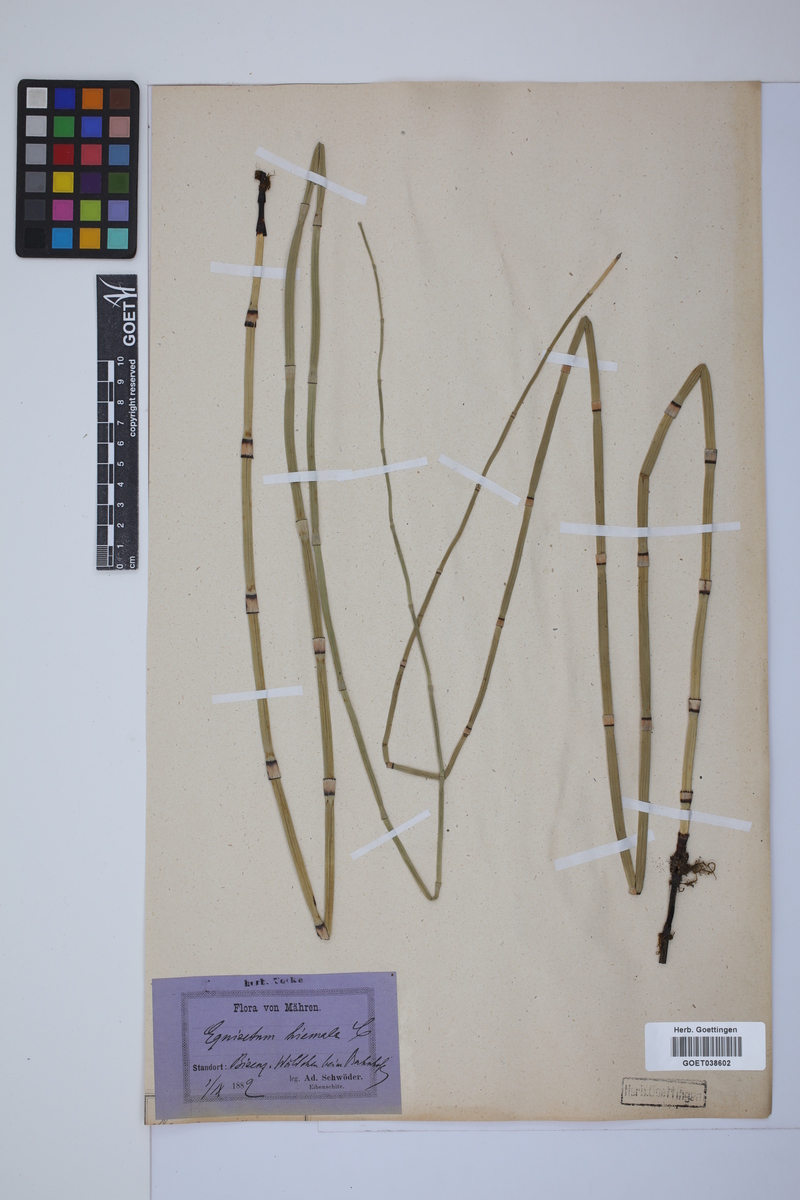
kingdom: Plantae
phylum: Tracheophyta
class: Polypodiopsida
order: Equisetales
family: Equisetaceae
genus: Equisetum
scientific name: Equisetum hyemale
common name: Rough horsetail
